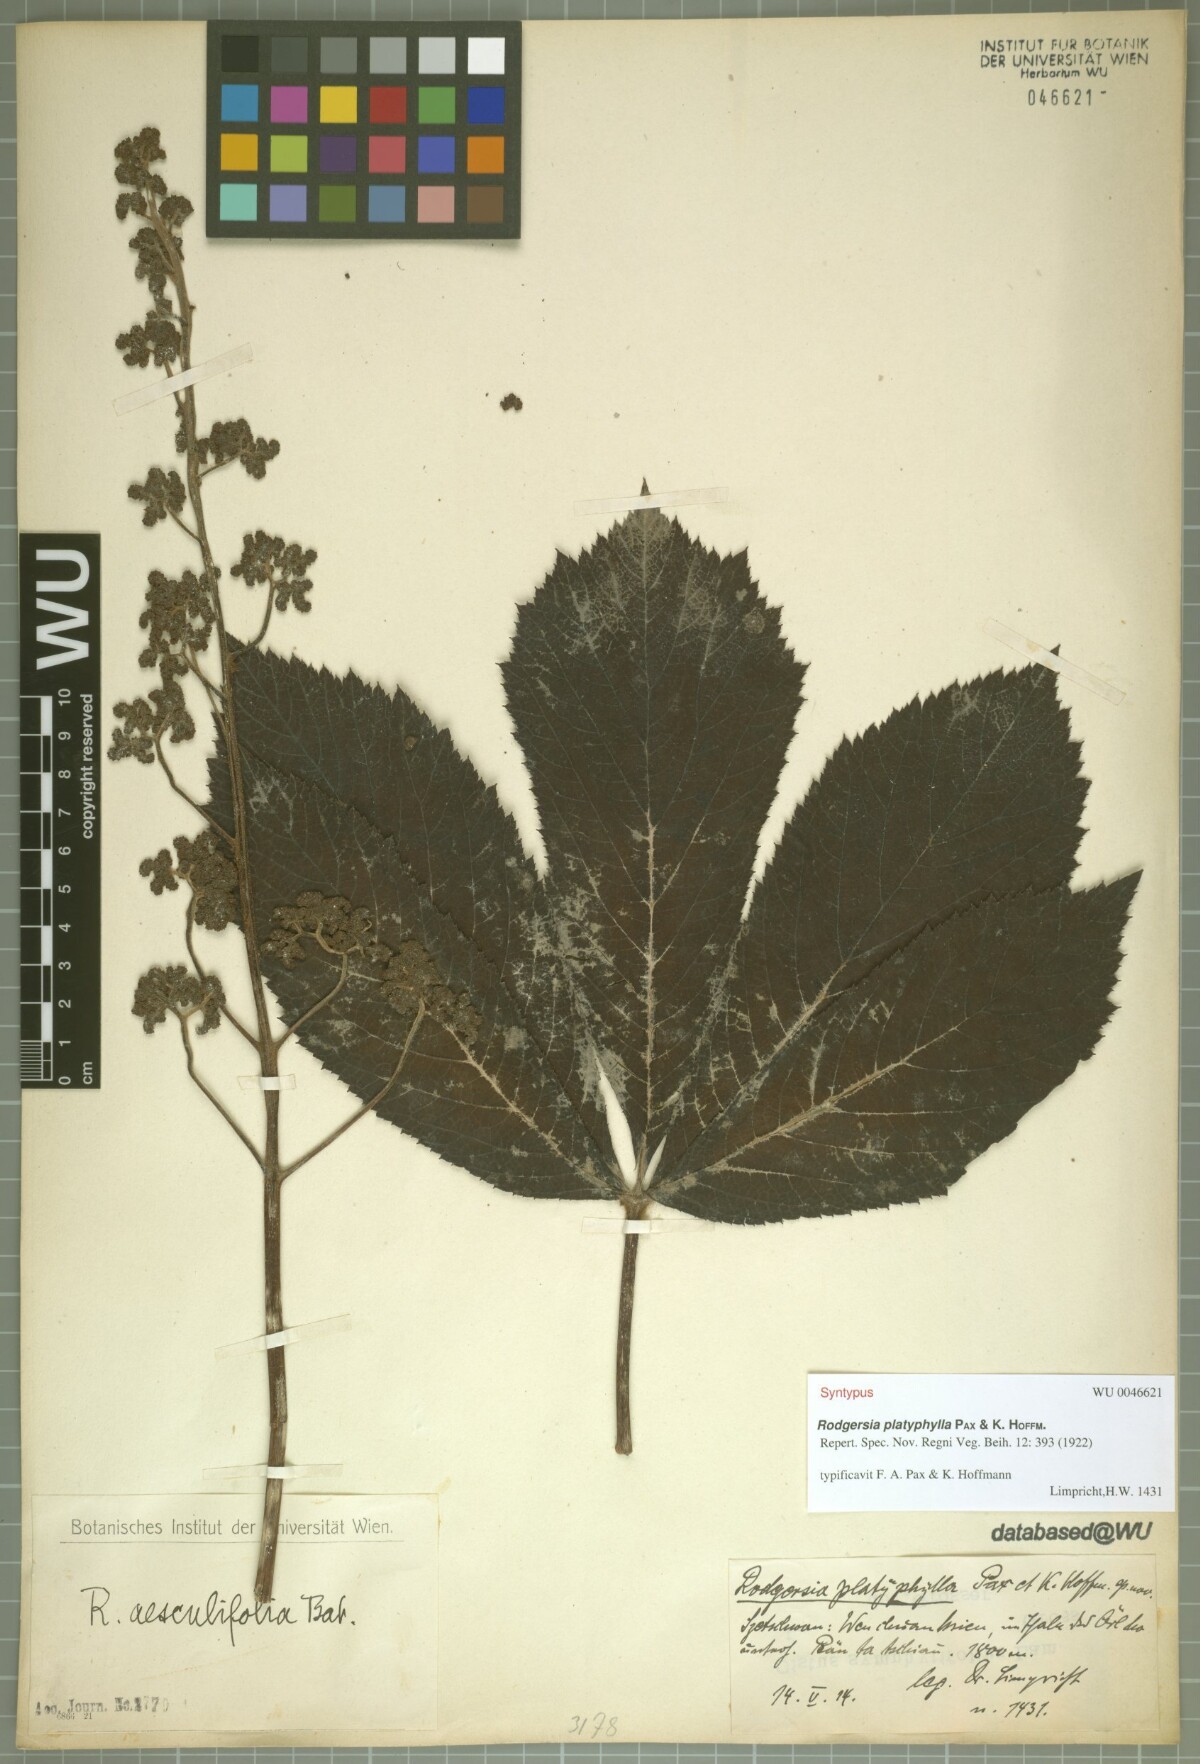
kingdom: Plantae
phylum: Tracheophyta
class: Magnoliopsida
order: Saxifragales
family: Saxifragaceae
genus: Rodgersia
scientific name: Rodgersia aesculifolia
